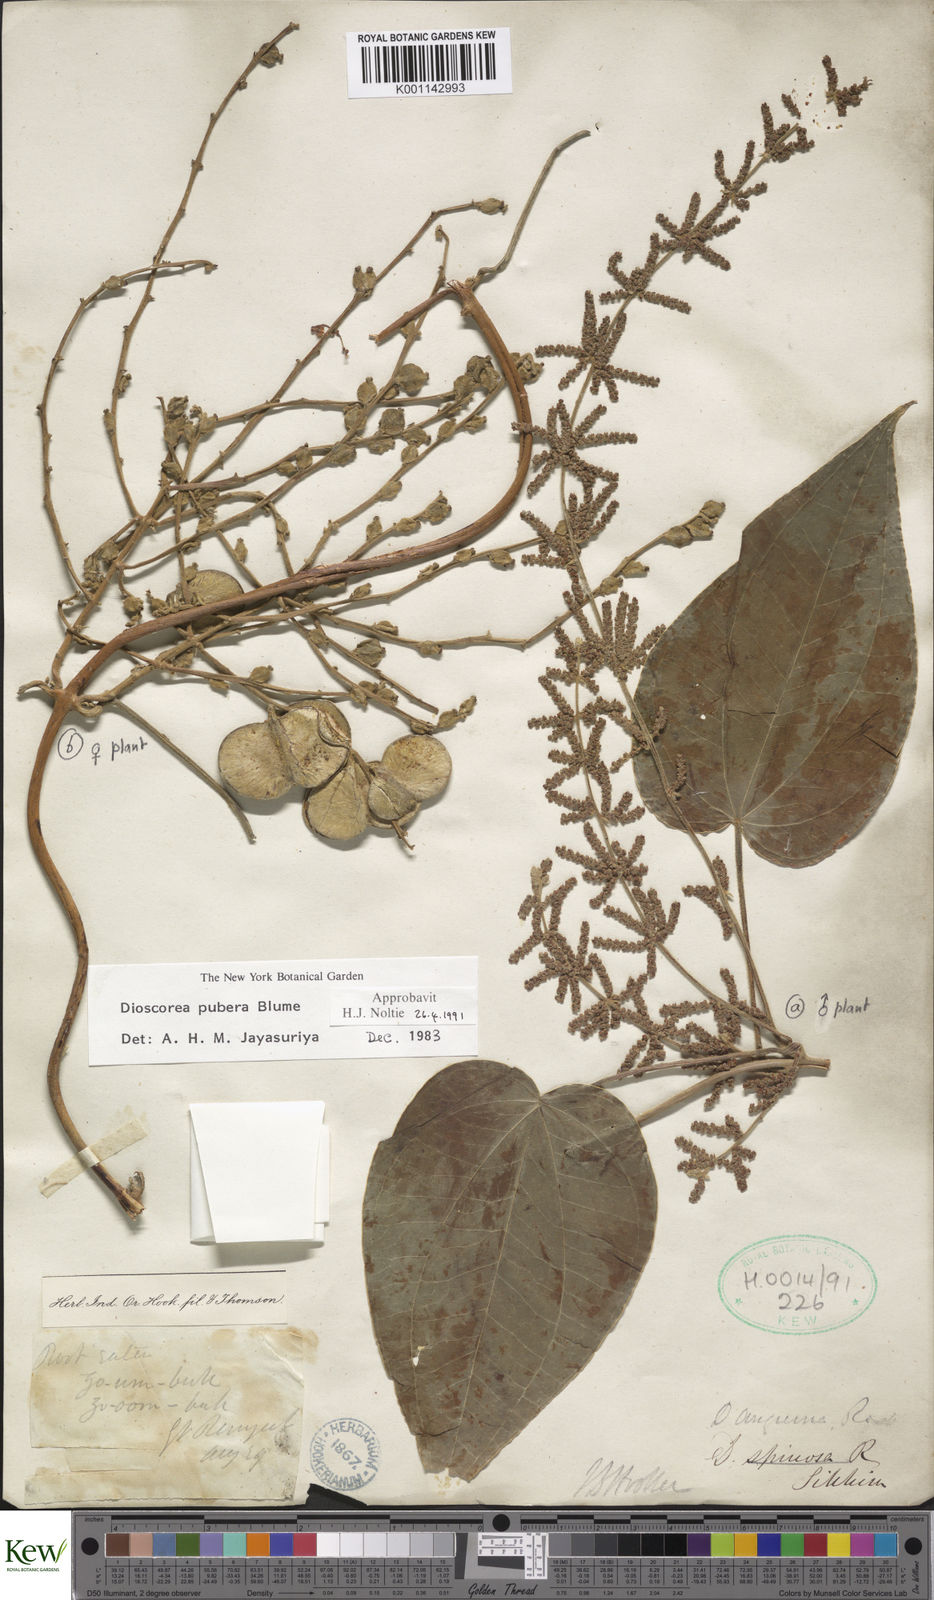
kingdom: Plantae
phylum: Tracheophyta
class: Liliopsida
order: Dioscoreales
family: Dioscoreaceae
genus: Dioscorea
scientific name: Dioscorea pubera
